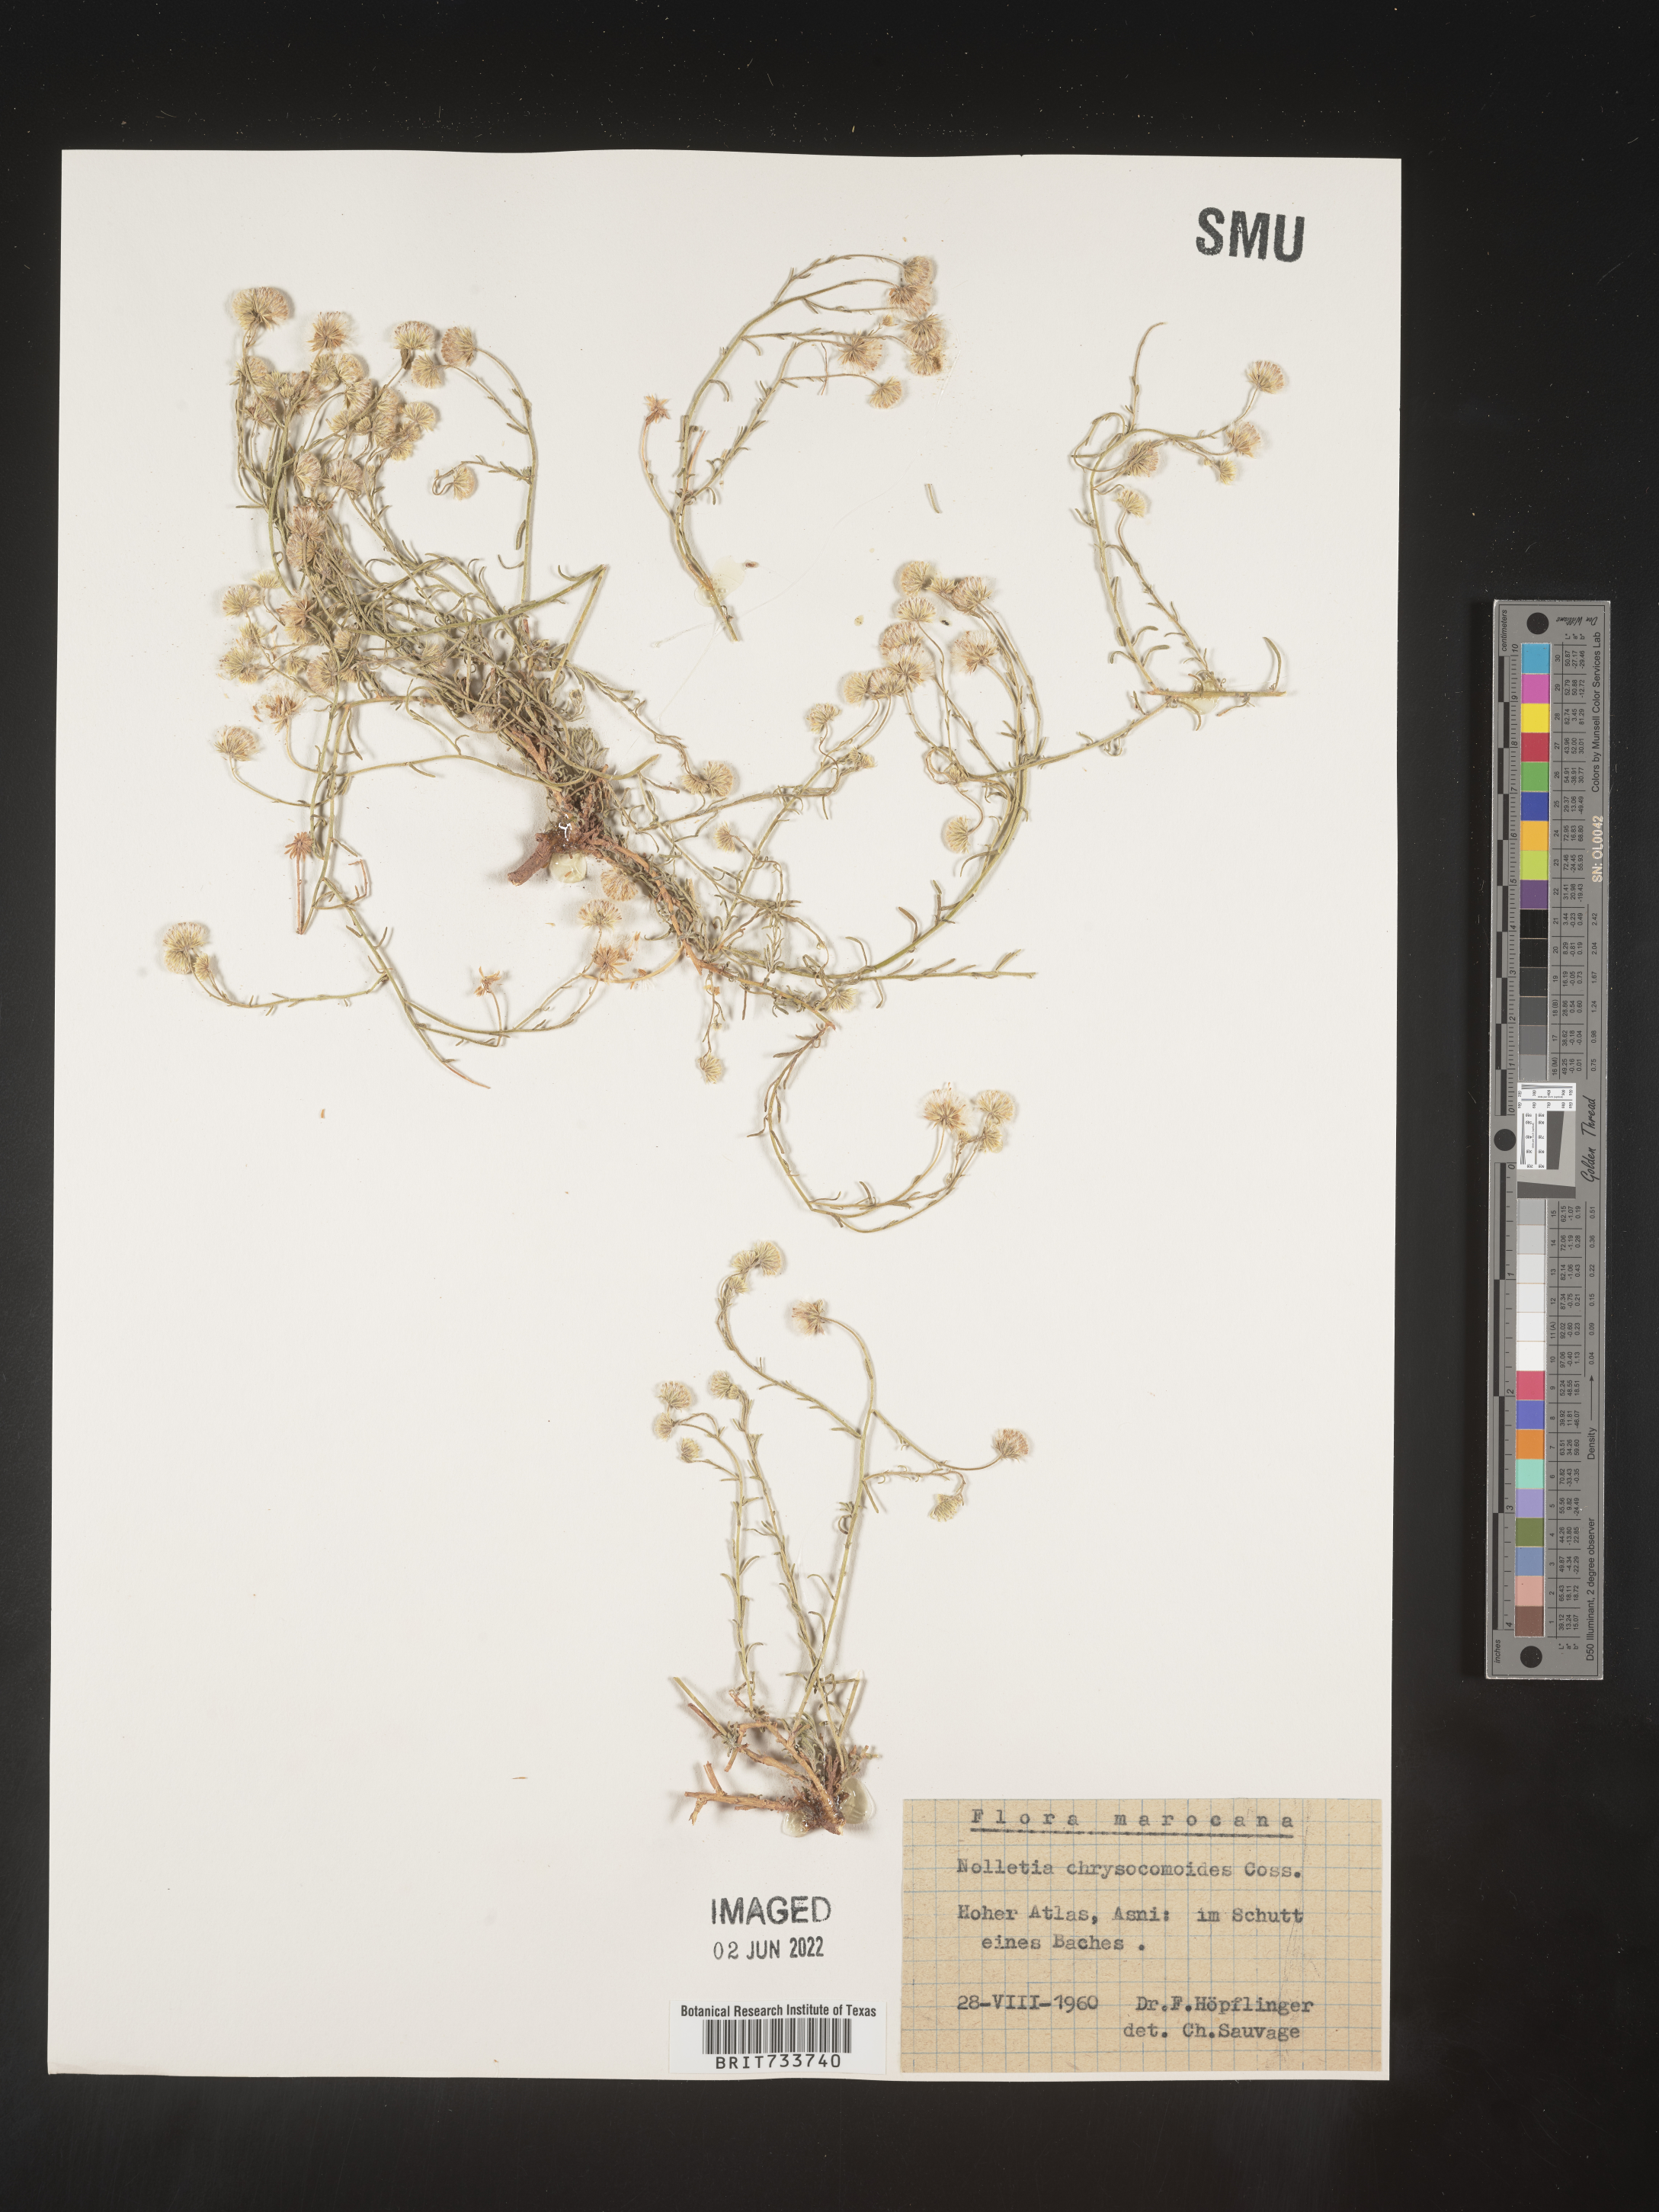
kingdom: Plantae
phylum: Tracheophyta
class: Magnoliopsida
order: Asterales
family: Asteraceae
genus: Nolletia
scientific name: Nolletia chrysocomoides
